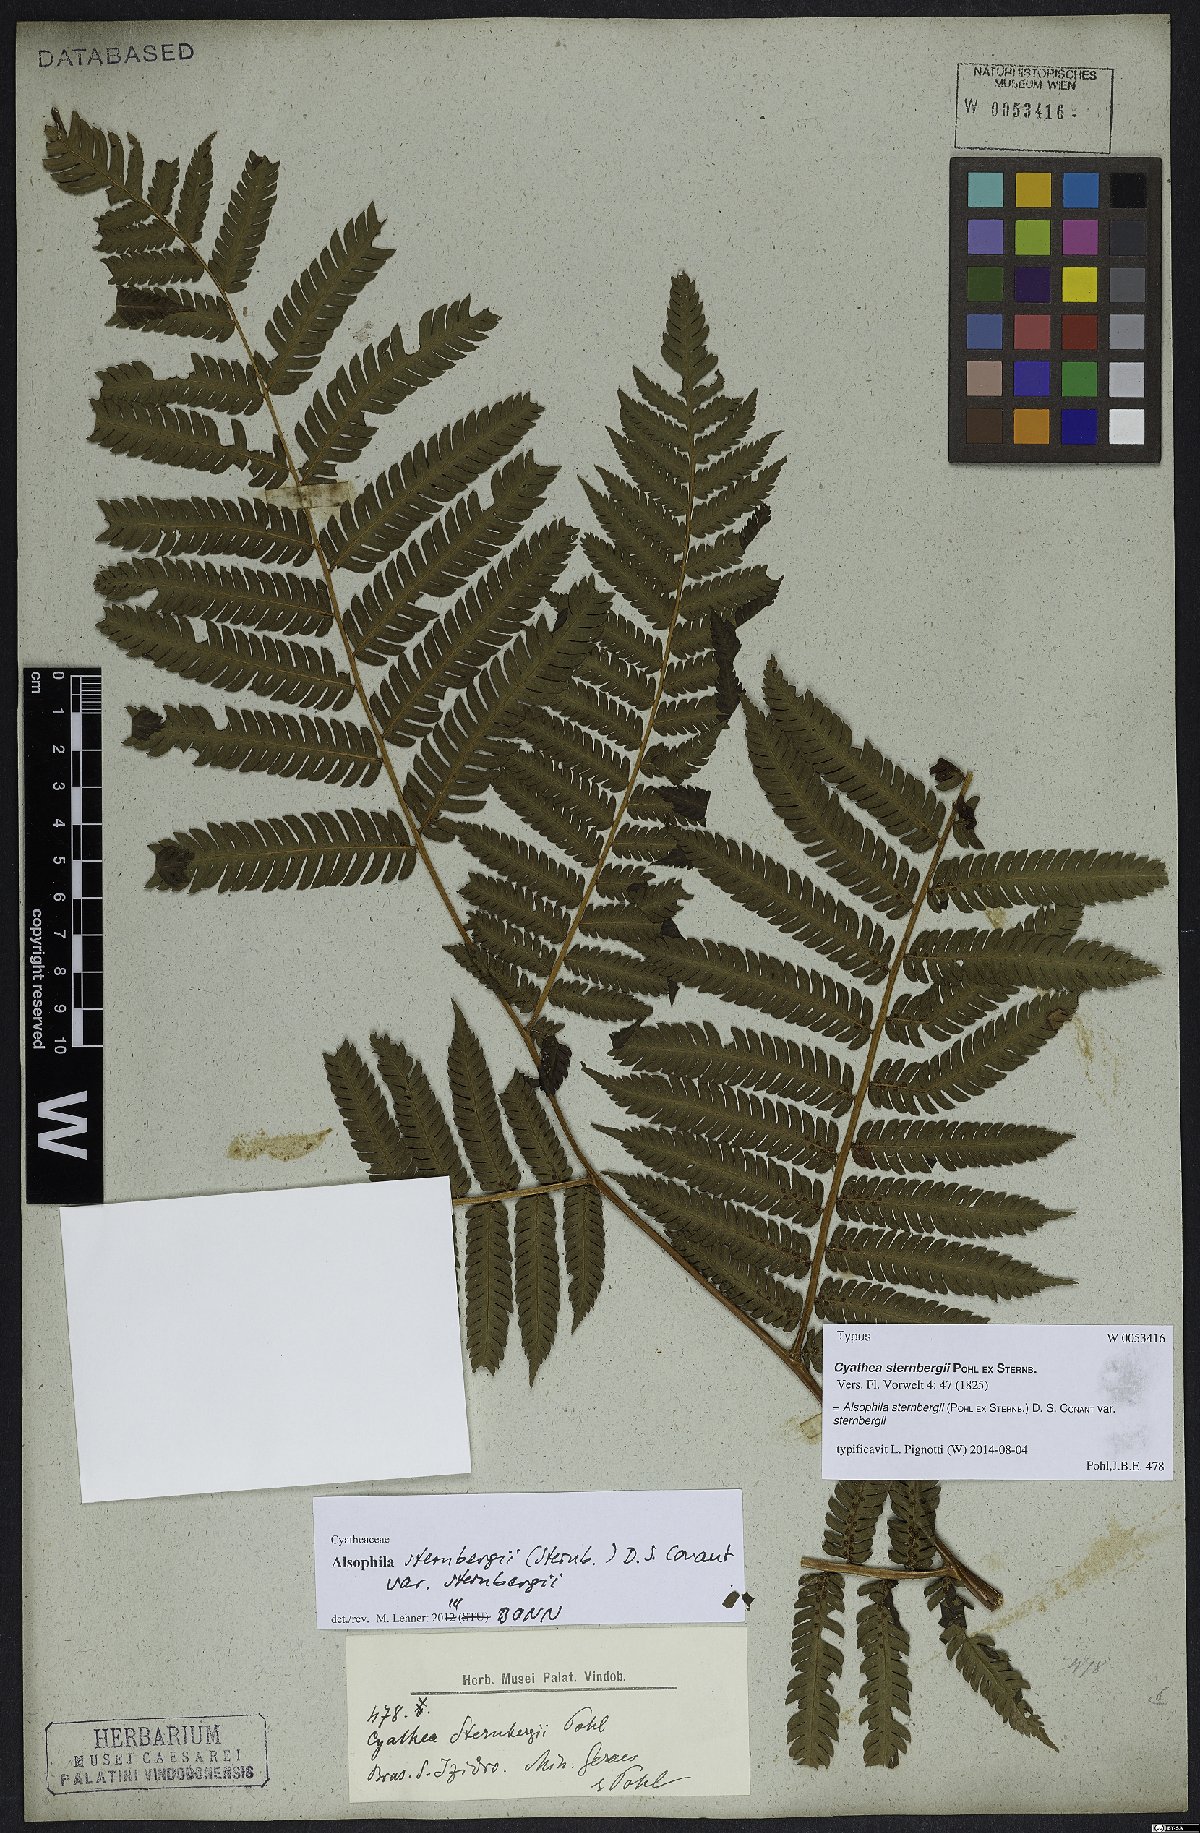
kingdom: Plantae
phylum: Tracheophyta
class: Polypodiopsida
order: Cyatheales
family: Cyatheaceae
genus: Alsophila
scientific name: Alsophila sternbergii
